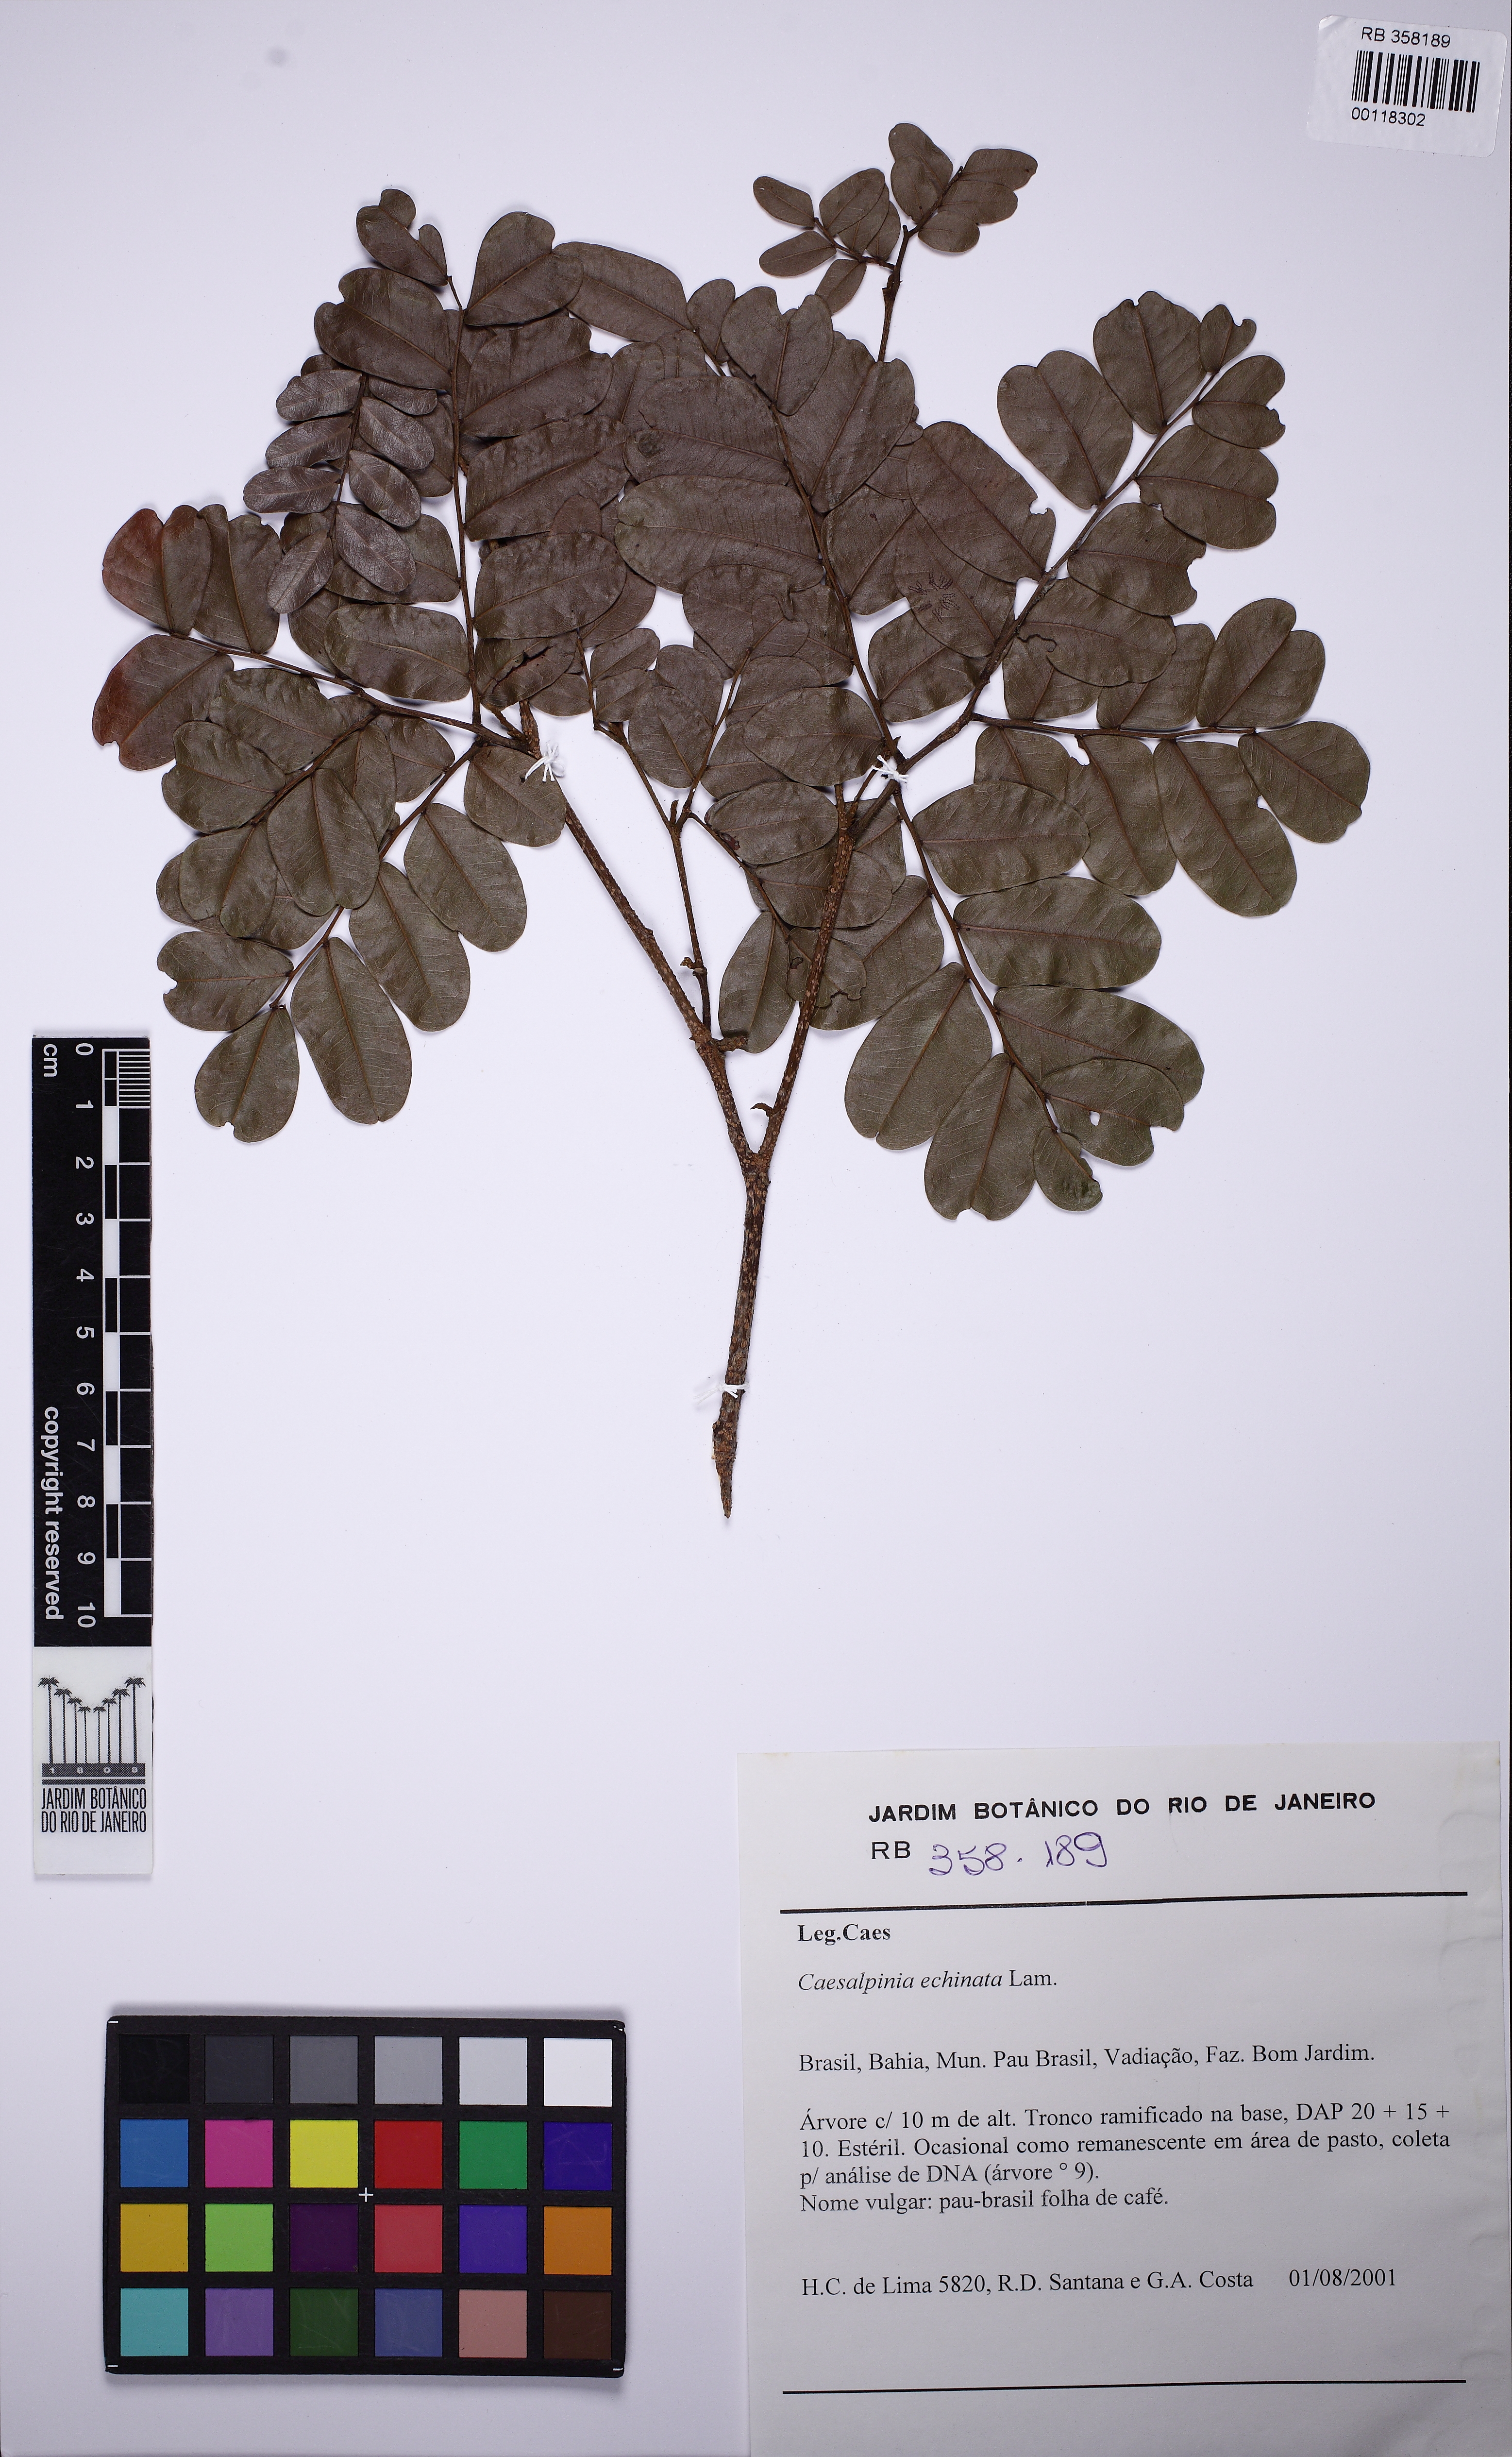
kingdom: Plantae
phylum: Tracheophyta
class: Magnoliopsida
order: Fabales
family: Fabaceae
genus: Paubrasilia
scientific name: Paubrasilia echinata
